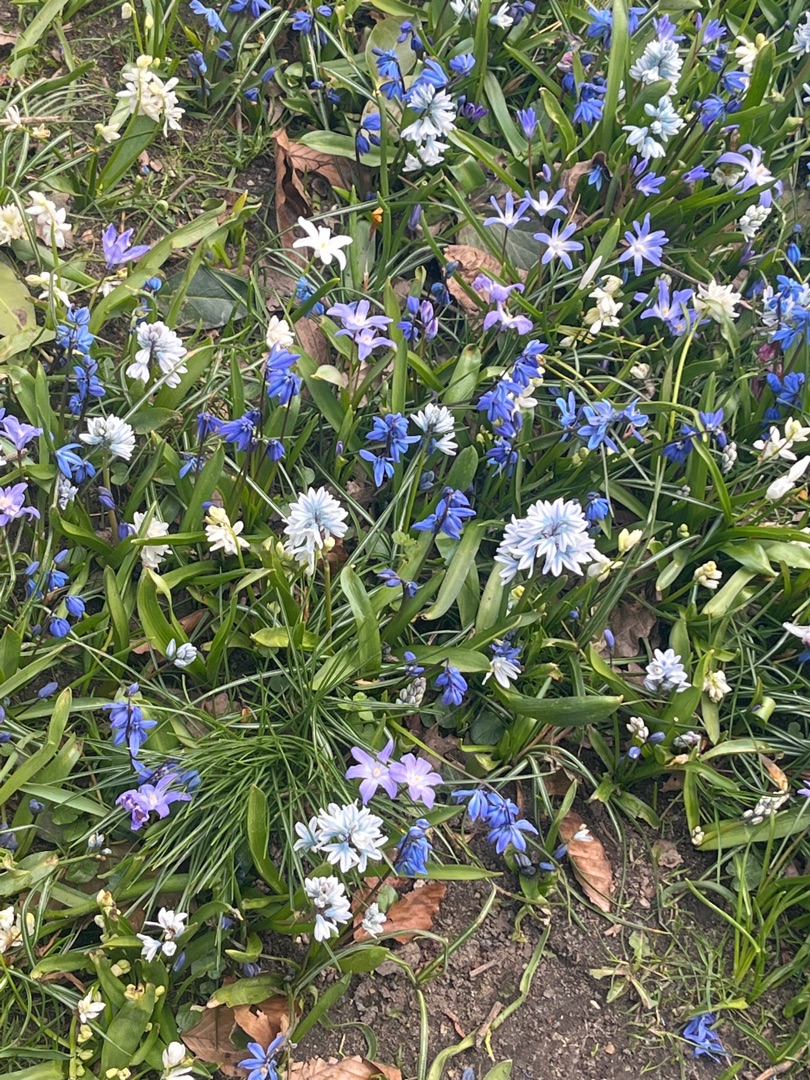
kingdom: Plantae
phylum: Tracheophyta
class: Liliopsida
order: Asparagales
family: Asparagaceae
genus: Scilla
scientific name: Scilla siberica
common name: Russisk skilla
